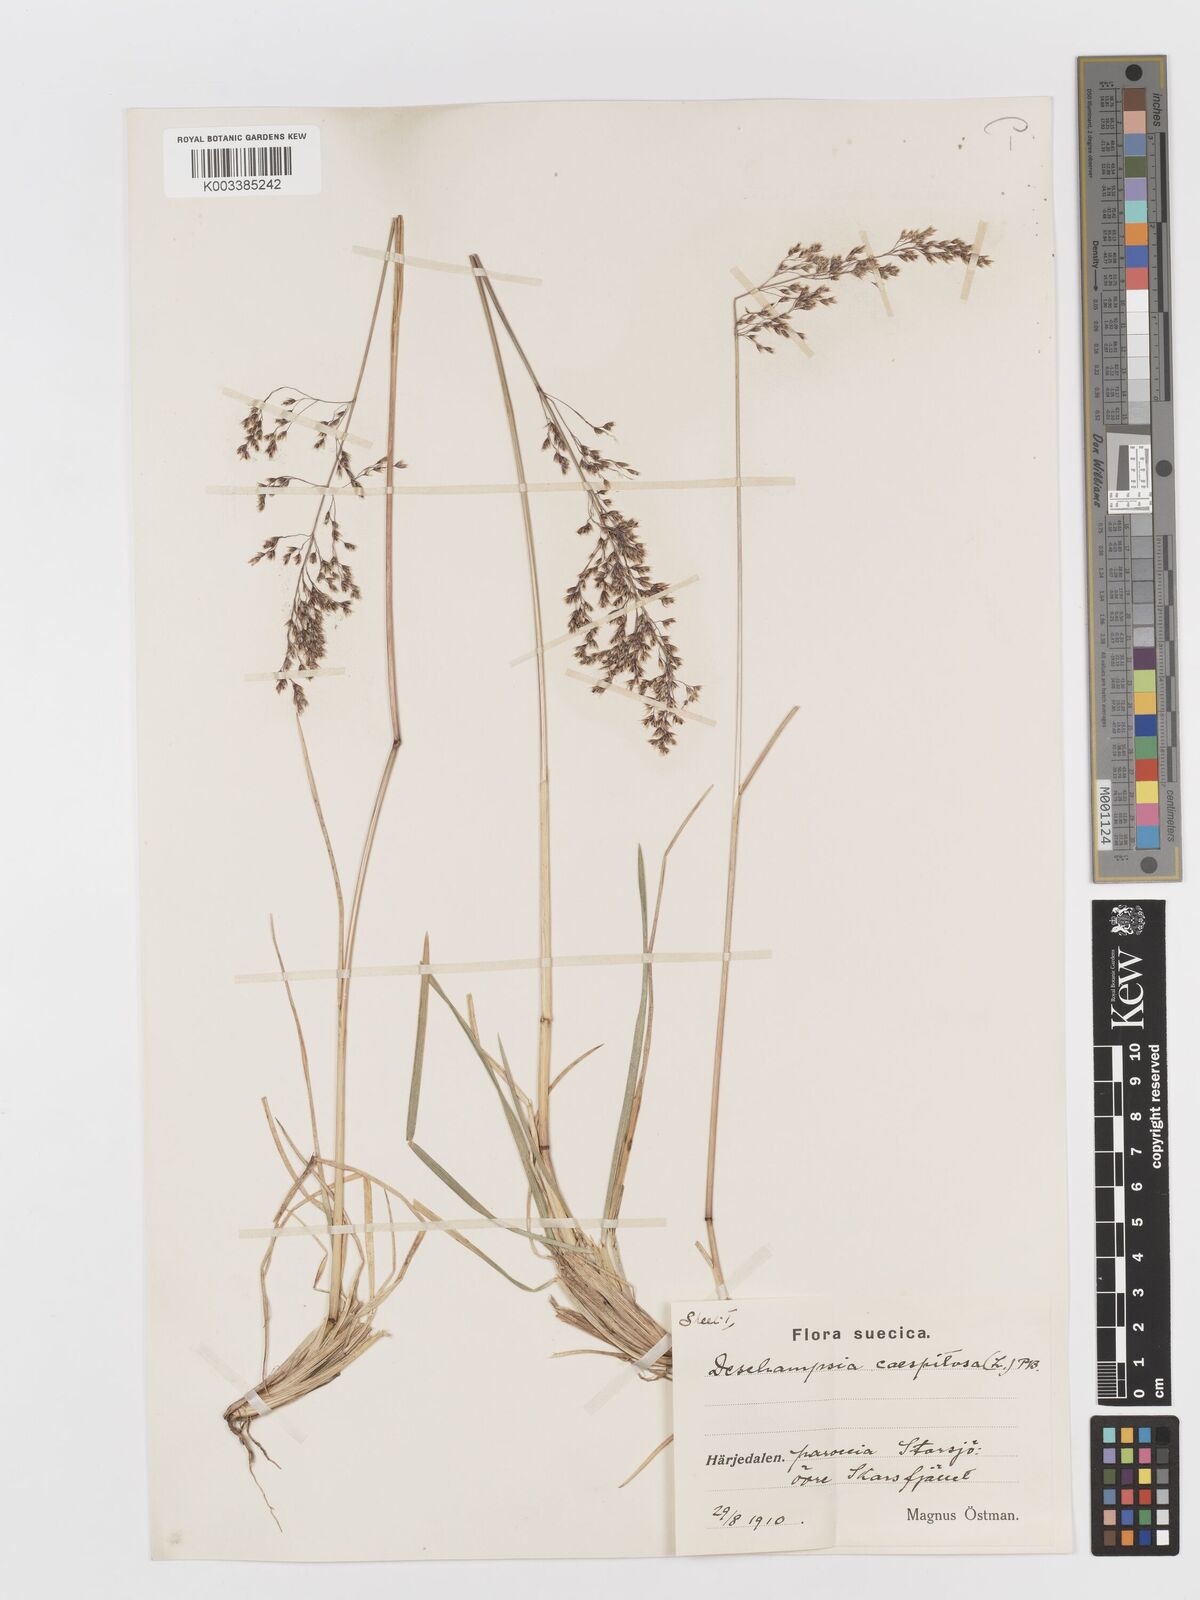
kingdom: Plantae
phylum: Tracheophyta
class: Liliopsida
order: Poales
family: Poaceae
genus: Deschampsia
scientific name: Deschampsia cespitosa
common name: Tufted hair-grass
